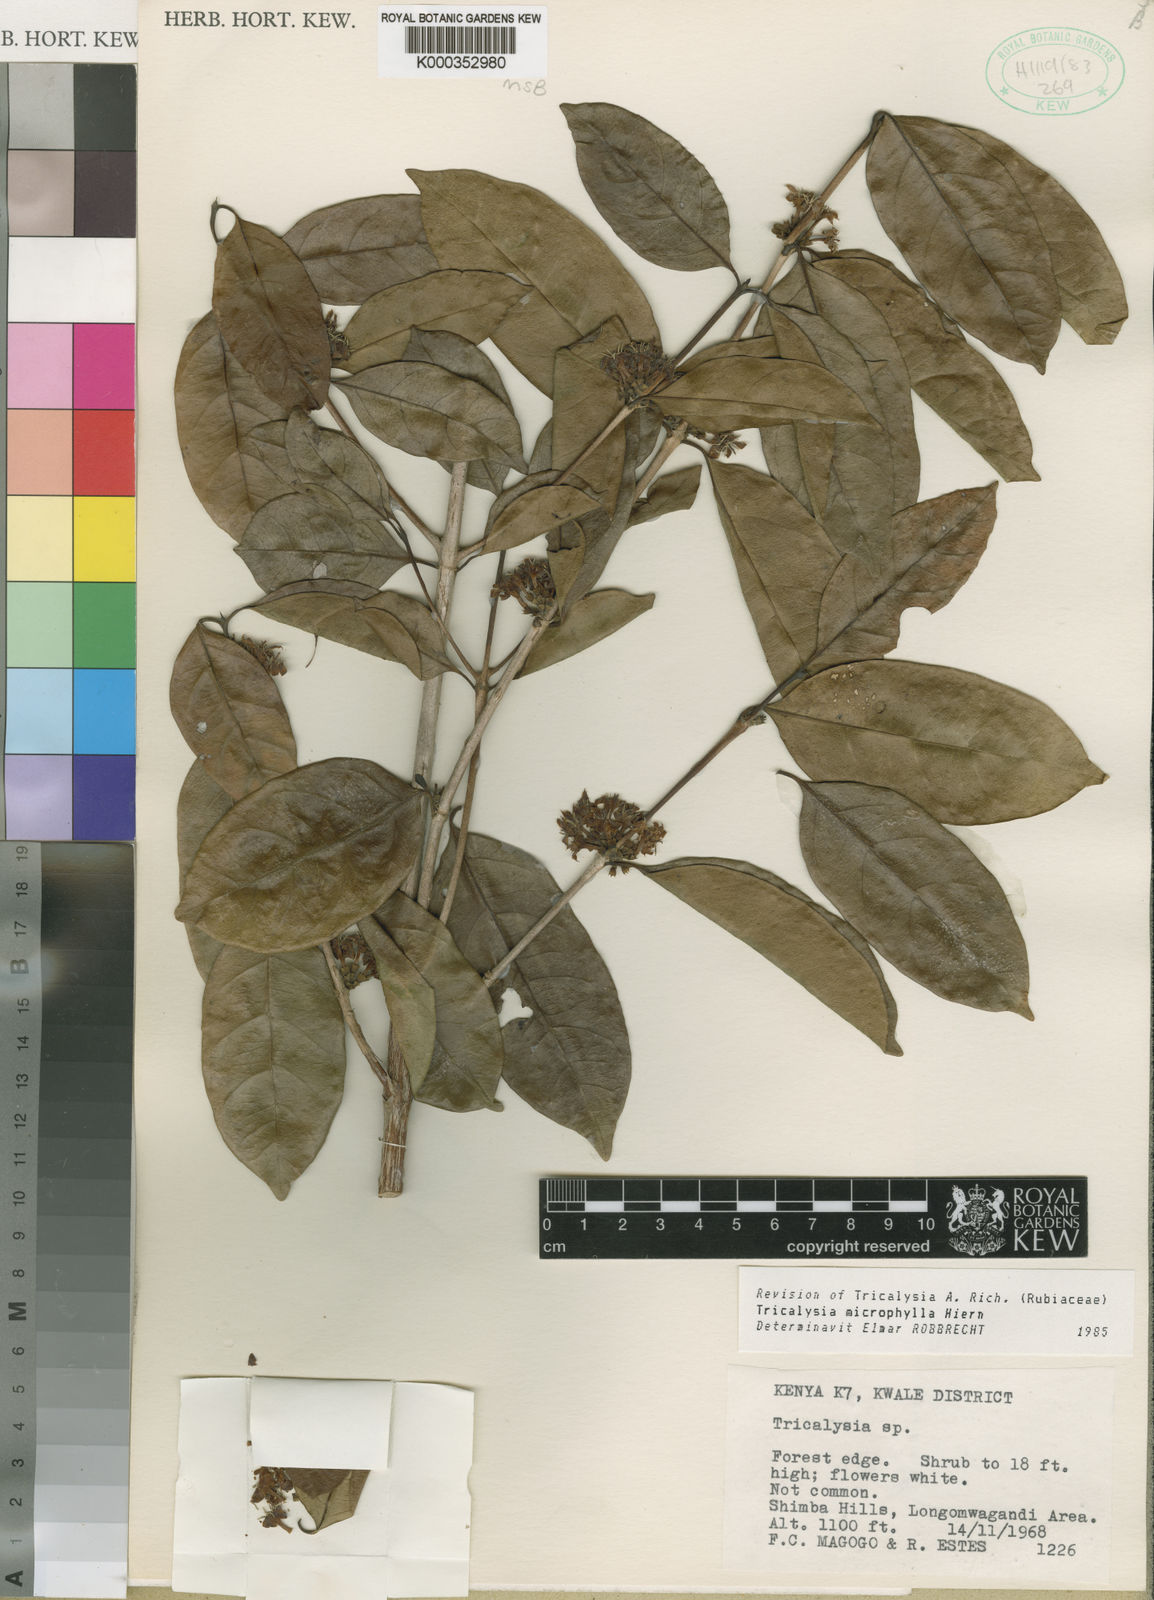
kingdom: Plantae
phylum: Tracheophyta
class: Magnoliopsida
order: Gentianales
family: Rubiaceae
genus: Tricalysia
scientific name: Tricalysia microphylla
